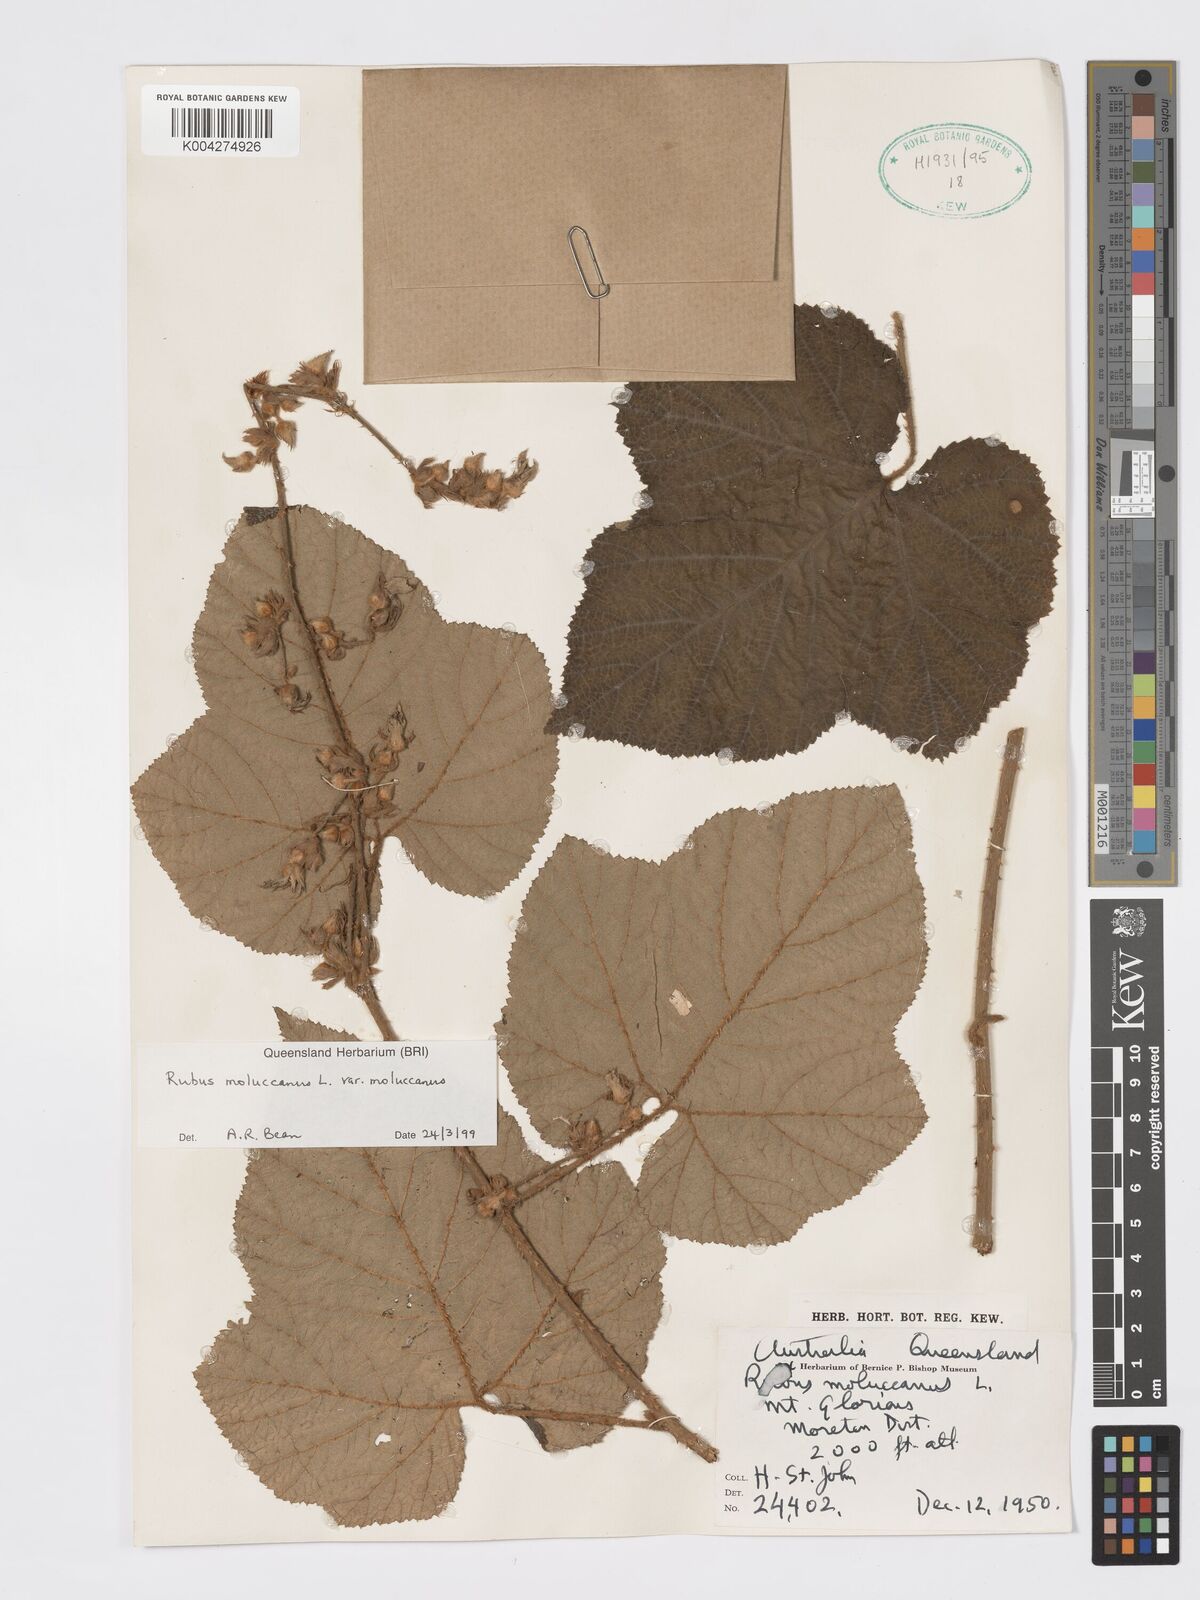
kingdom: Plantae
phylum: Tracheophyta
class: Magnoliopsida
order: Rosales
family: Rosaceae
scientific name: Rosaceae
